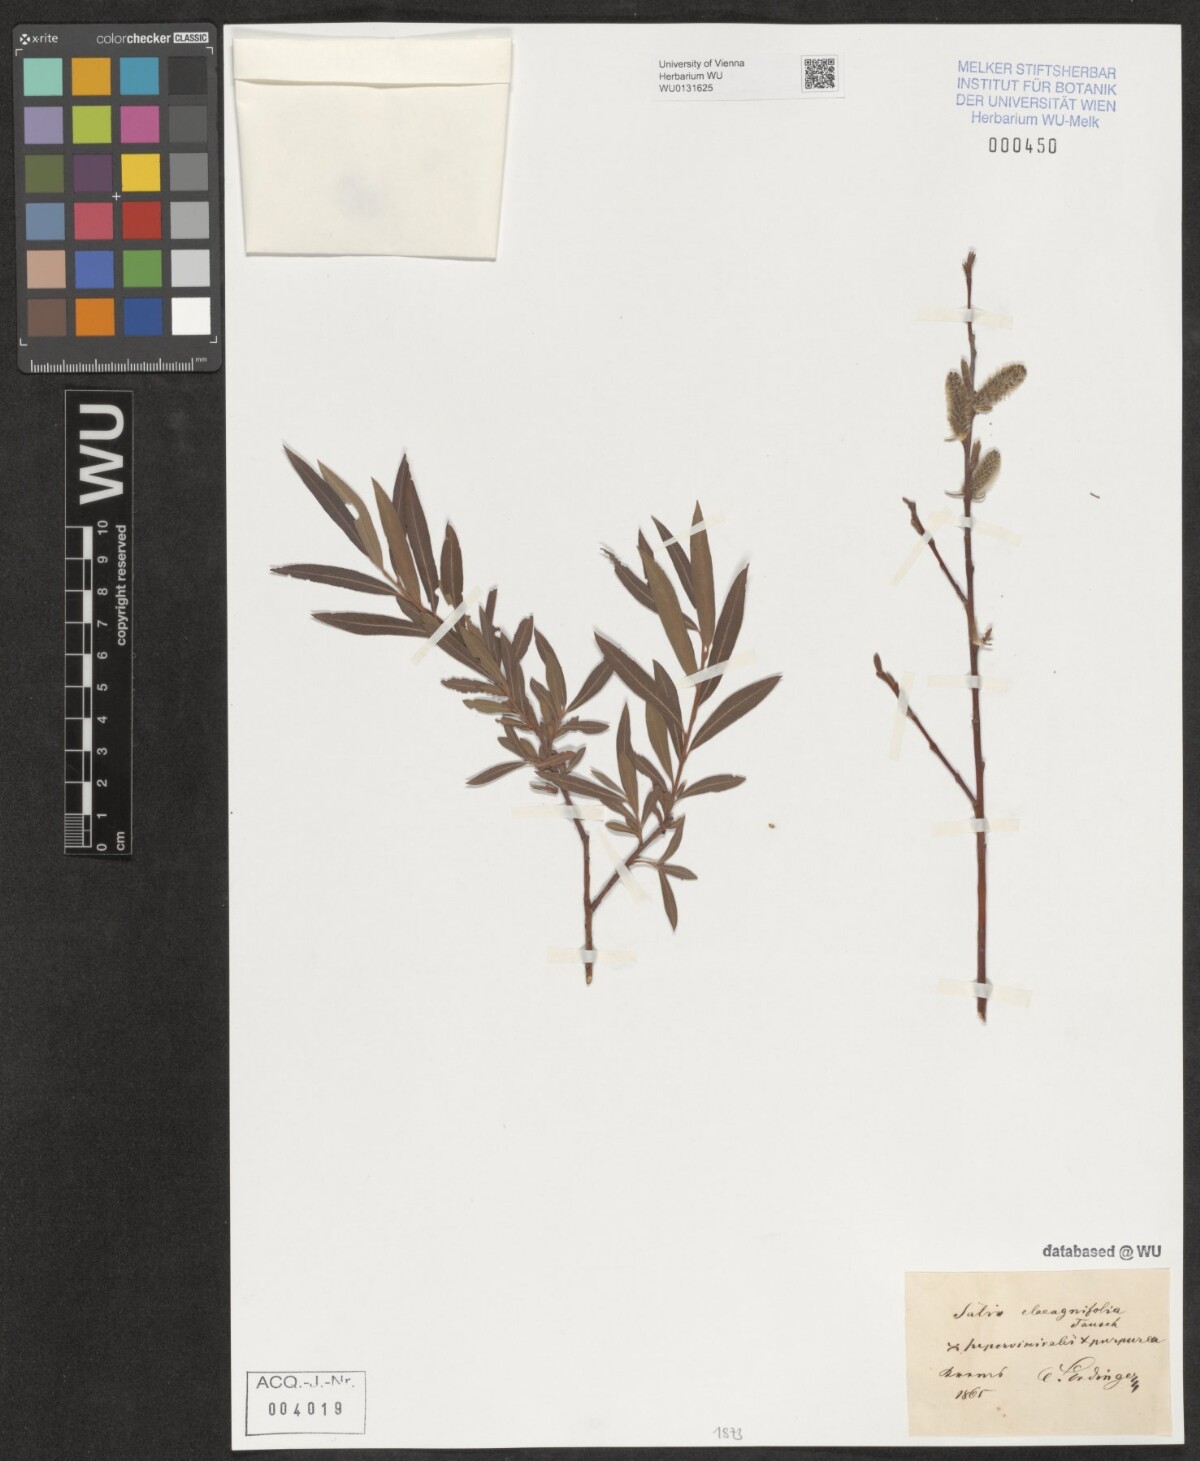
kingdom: Plantae
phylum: Tracheophyta
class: Magnoliopsida
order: Malpighiales
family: Salicaceae
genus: Salix
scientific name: Salix glauca
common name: Glaucous willow
